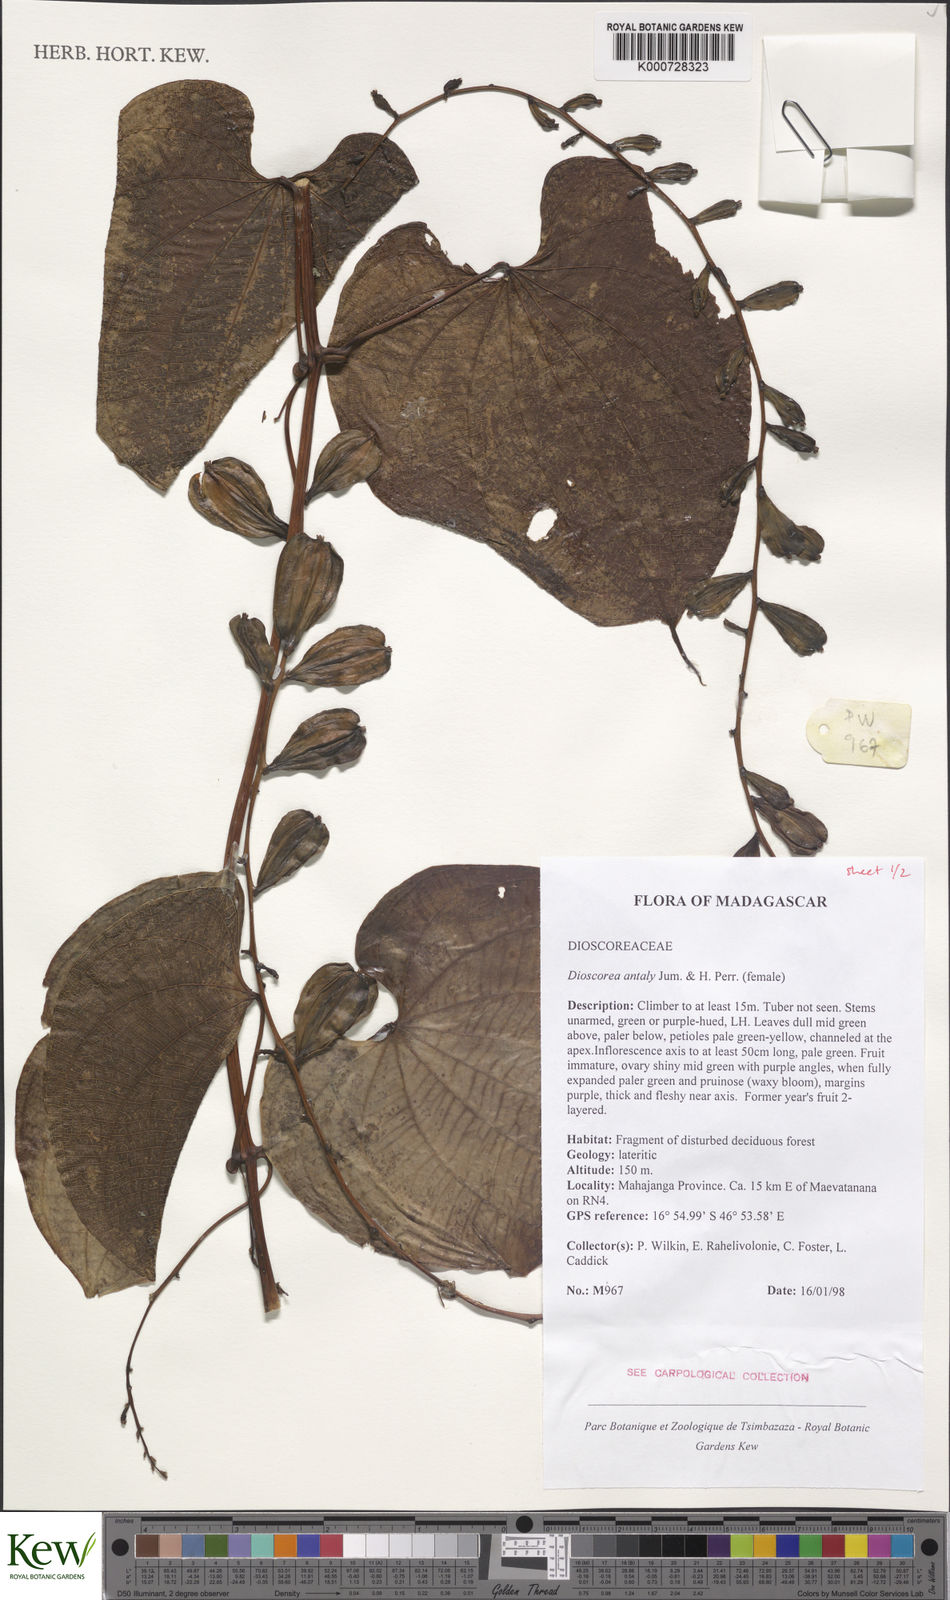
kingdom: Plantae
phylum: Tracheophyta
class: Liliopsida
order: Dioscoreales
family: Dioscoreaceae
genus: Dioscorea
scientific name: Dioscorea antaly
